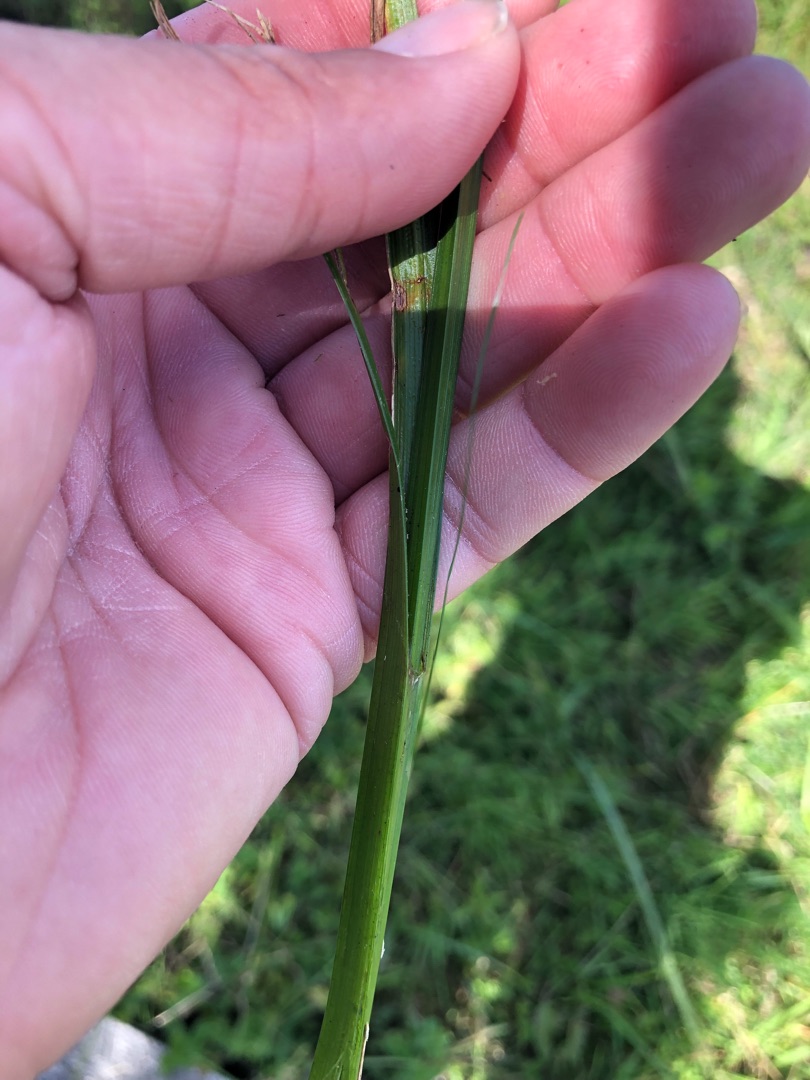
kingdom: Plantae
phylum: Tracheophyta
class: Liliopsida
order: Poales
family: Cyperaceae
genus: Carex
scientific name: Carex pseudocyperus
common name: Knippe-star
